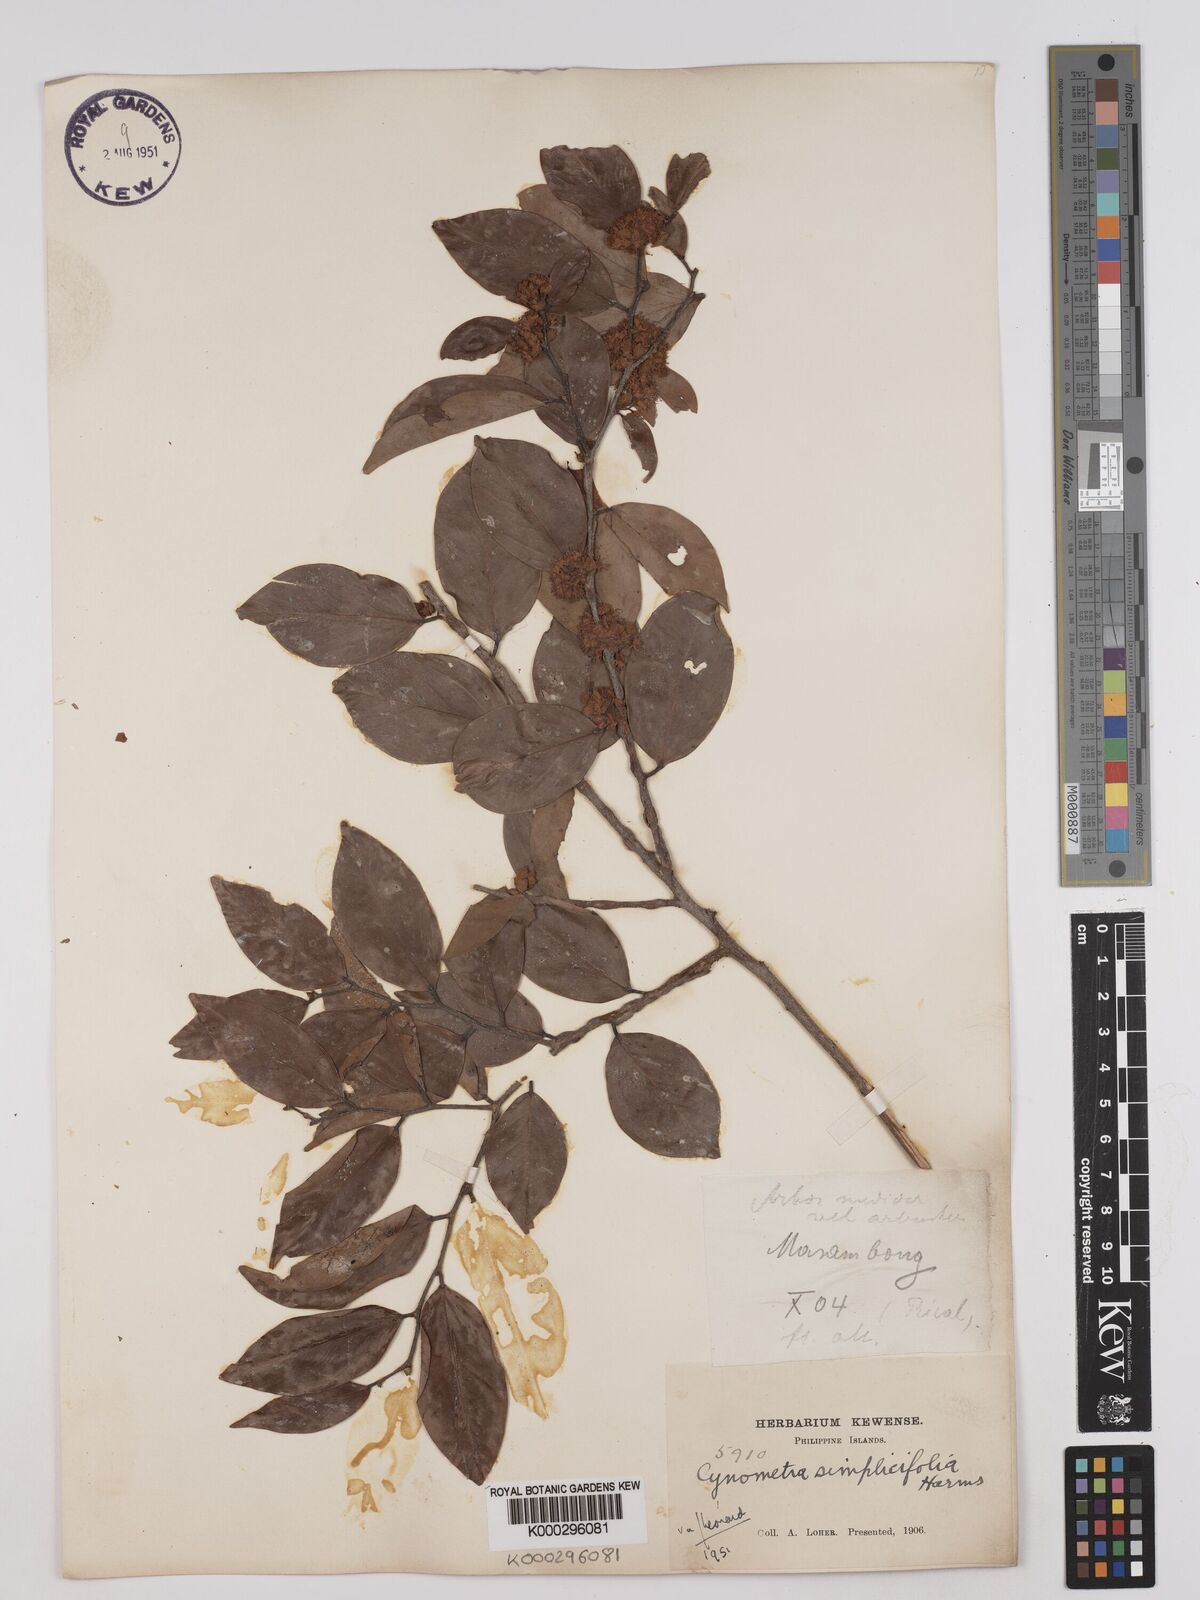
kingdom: Plantae
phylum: Tracheophyta
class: Magnoliopsida
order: Fabales
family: Fabaceae
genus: Cynometra
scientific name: Cynometra simplicifolia
